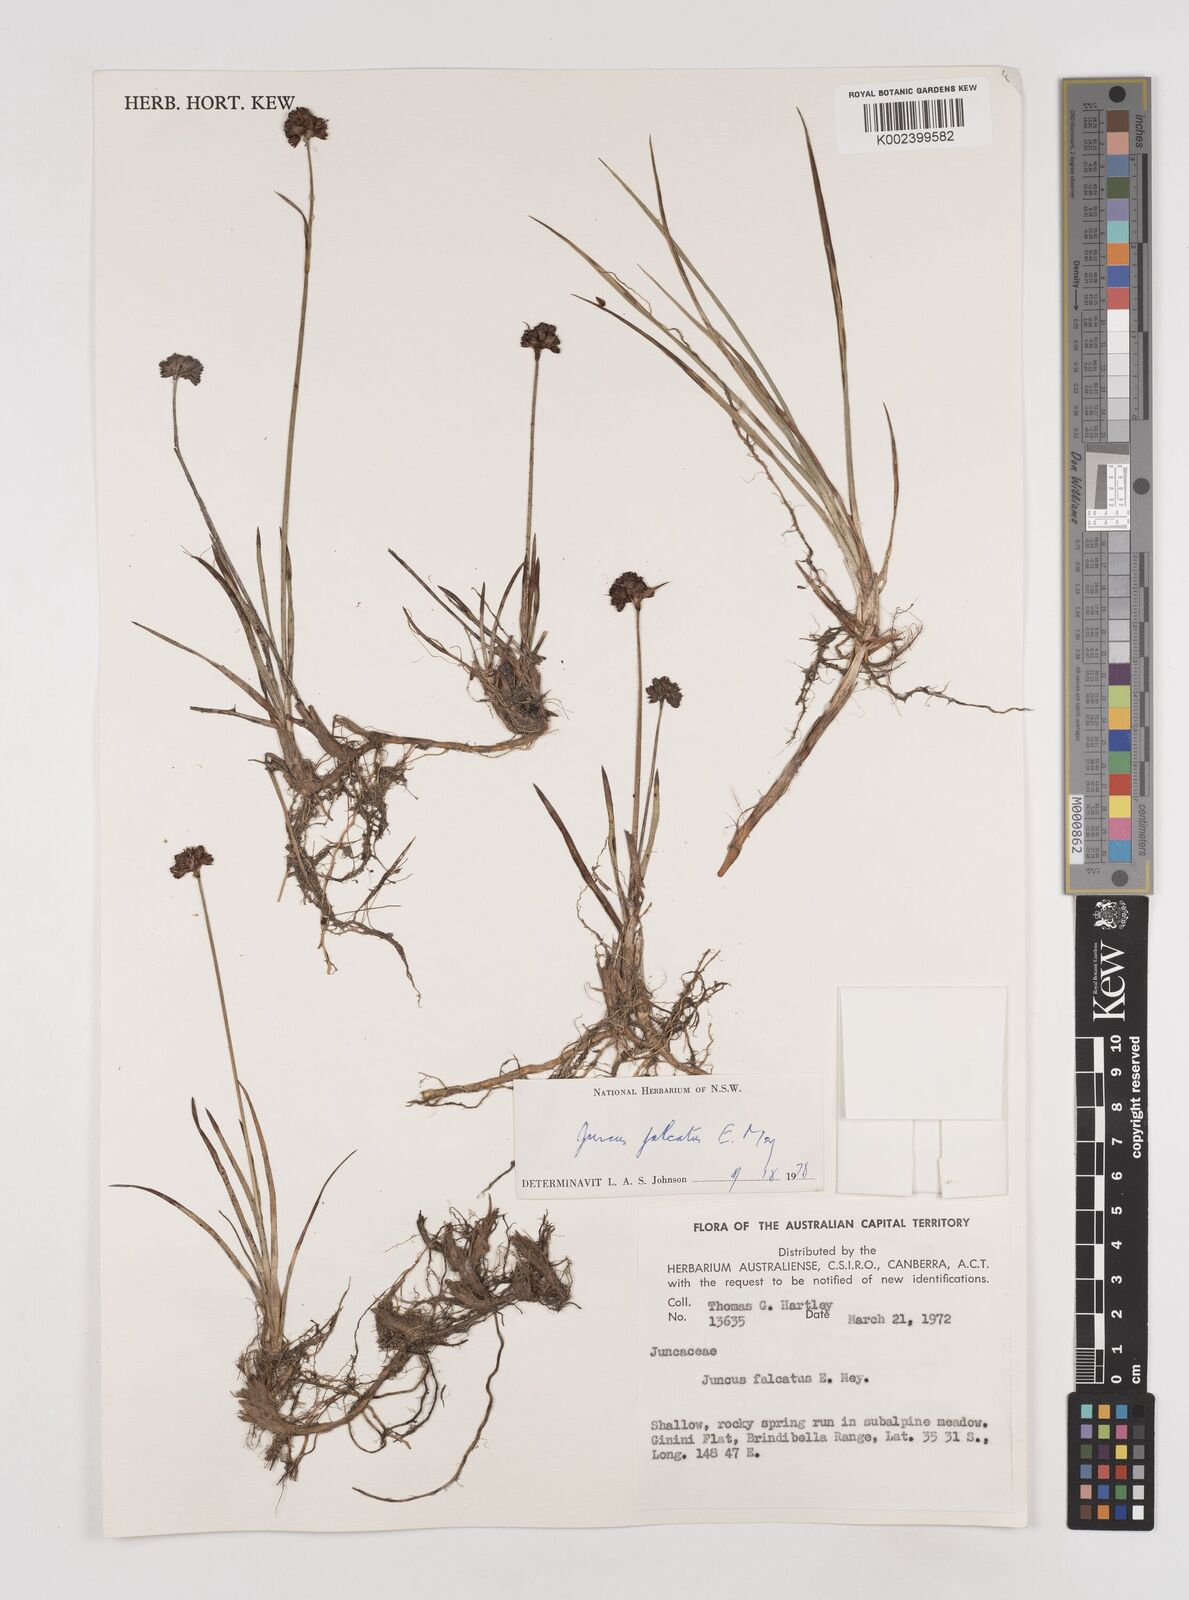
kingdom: Plantae
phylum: Tracheophyta
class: Liliopsida
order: Poales
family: Juncaceae
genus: Juncus
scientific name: Juncus falcatus
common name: Sickle-leaf rush
